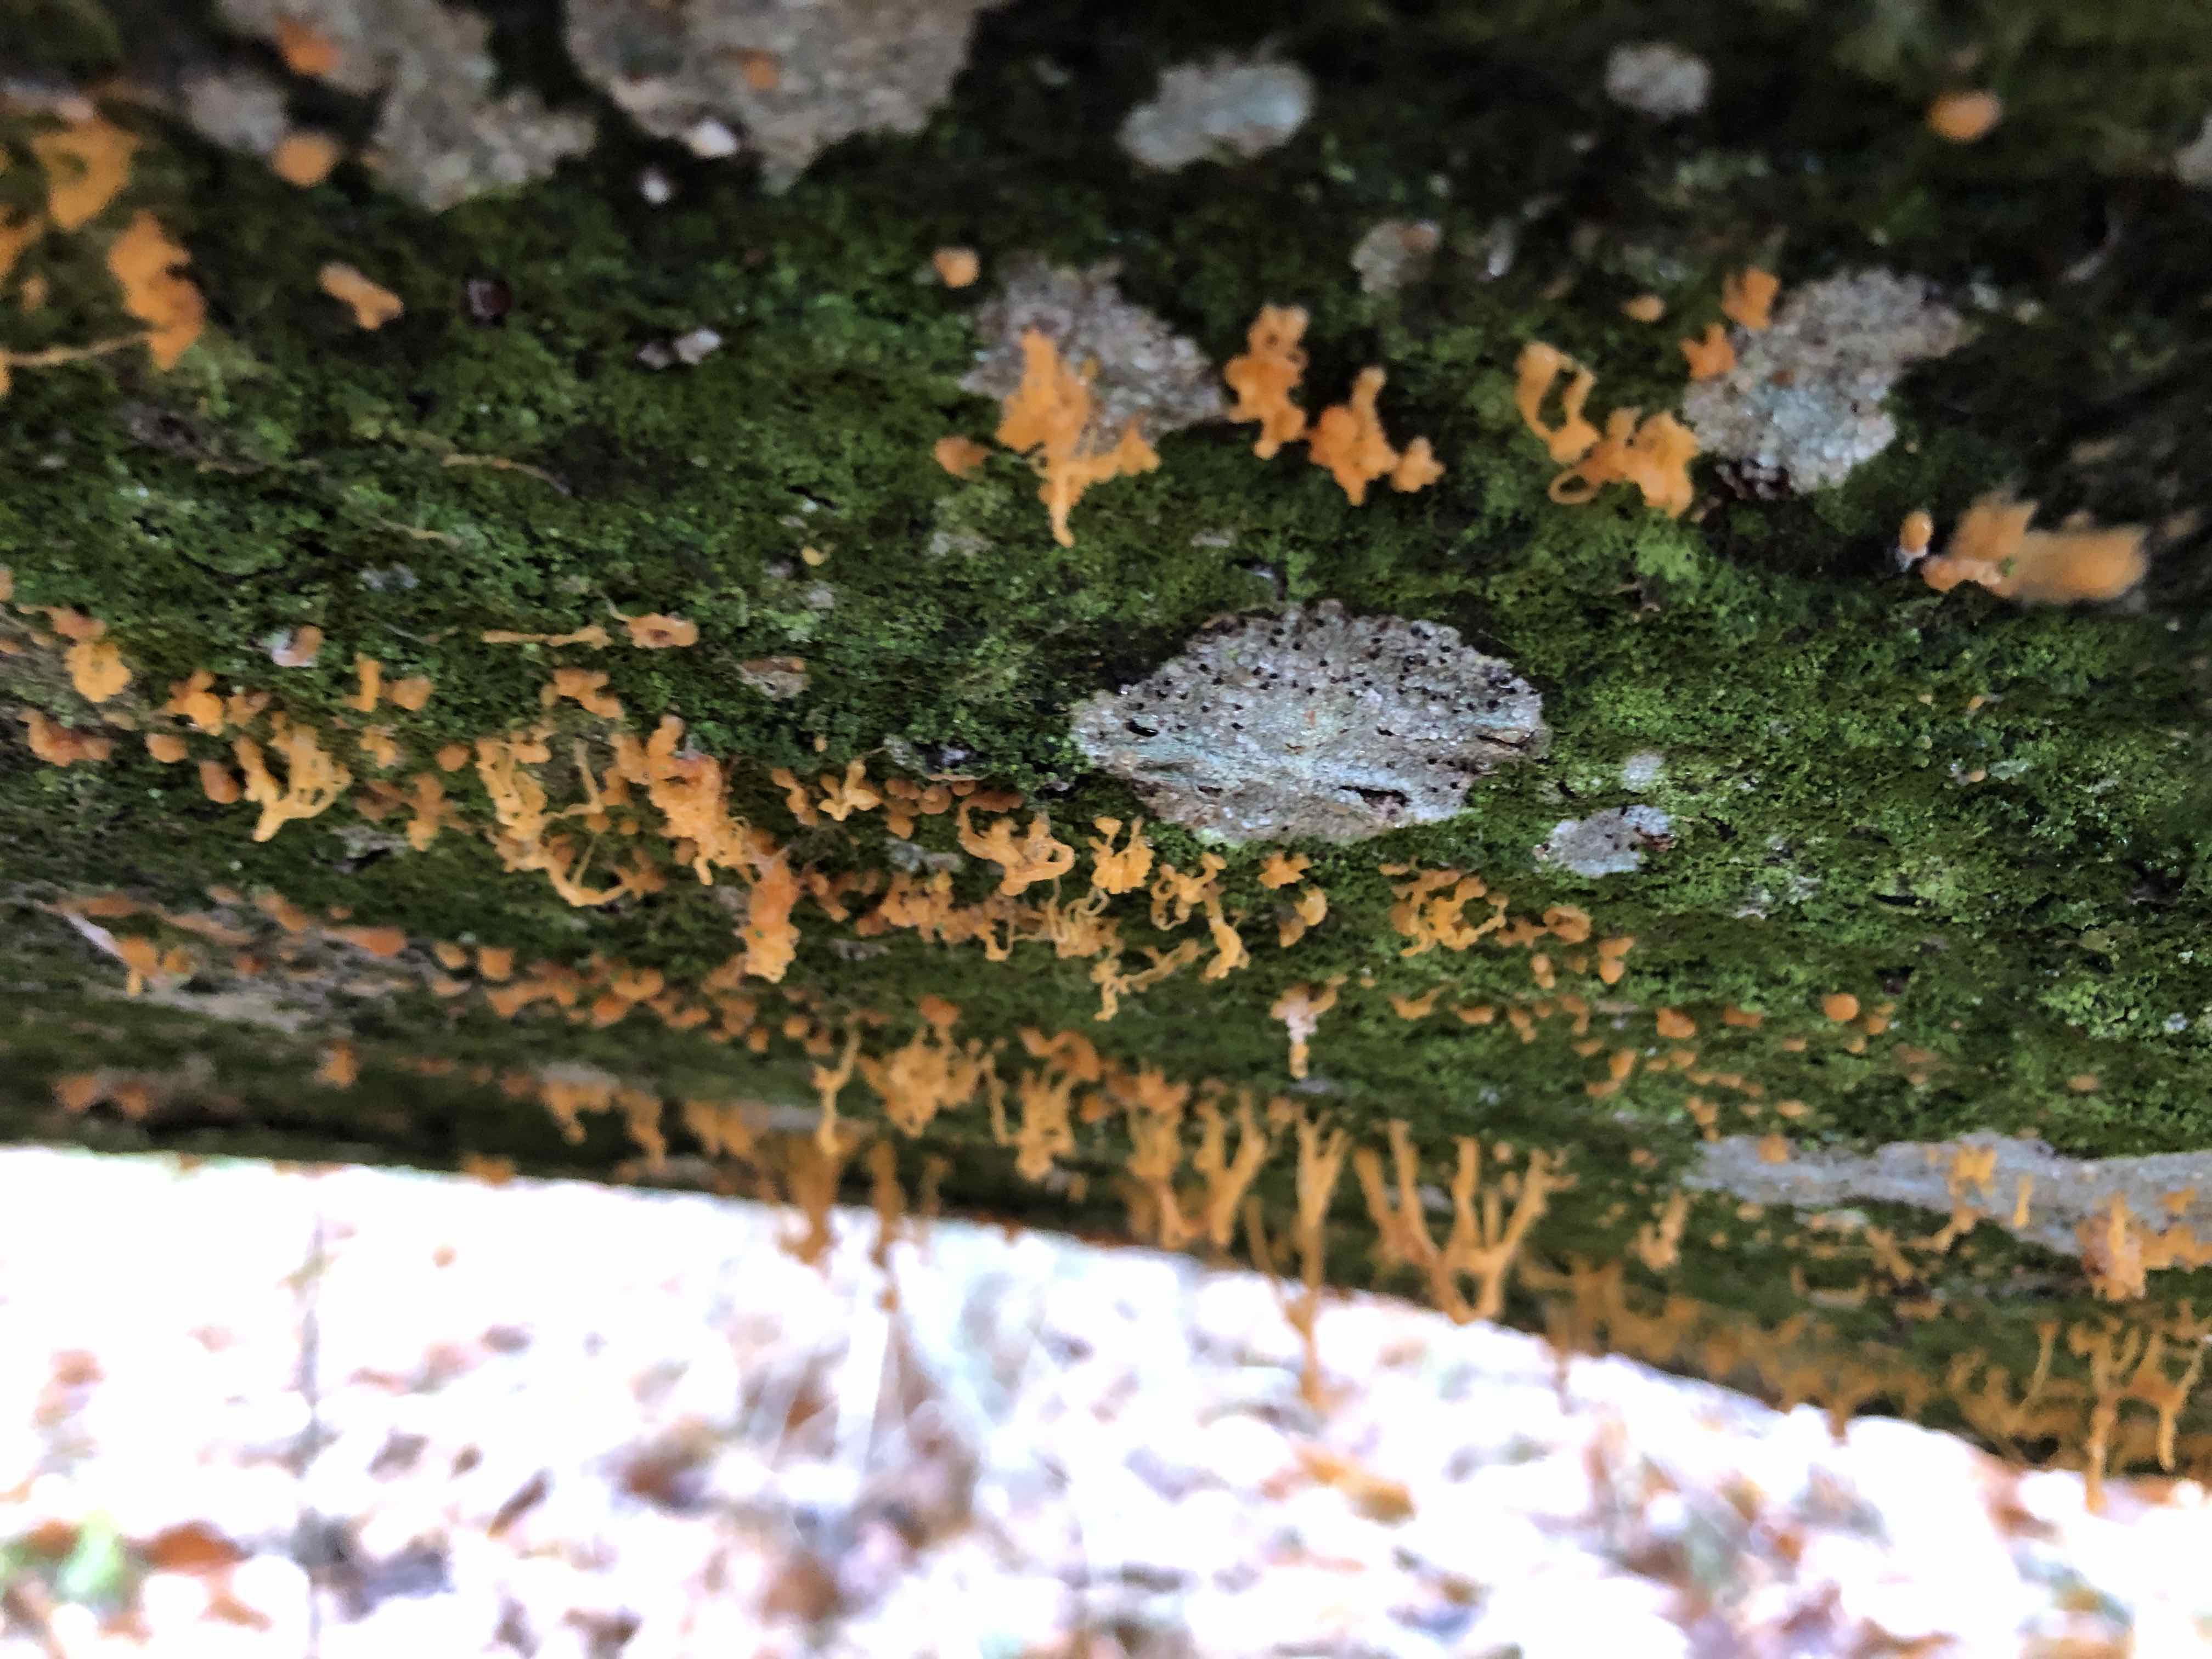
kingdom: Fungi
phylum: Ascomycota
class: Sordariomycetes
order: Xylariales
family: Diatrypaceae
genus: Eutypella
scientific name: Eutypella quaternata
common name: bøge-korsprik
